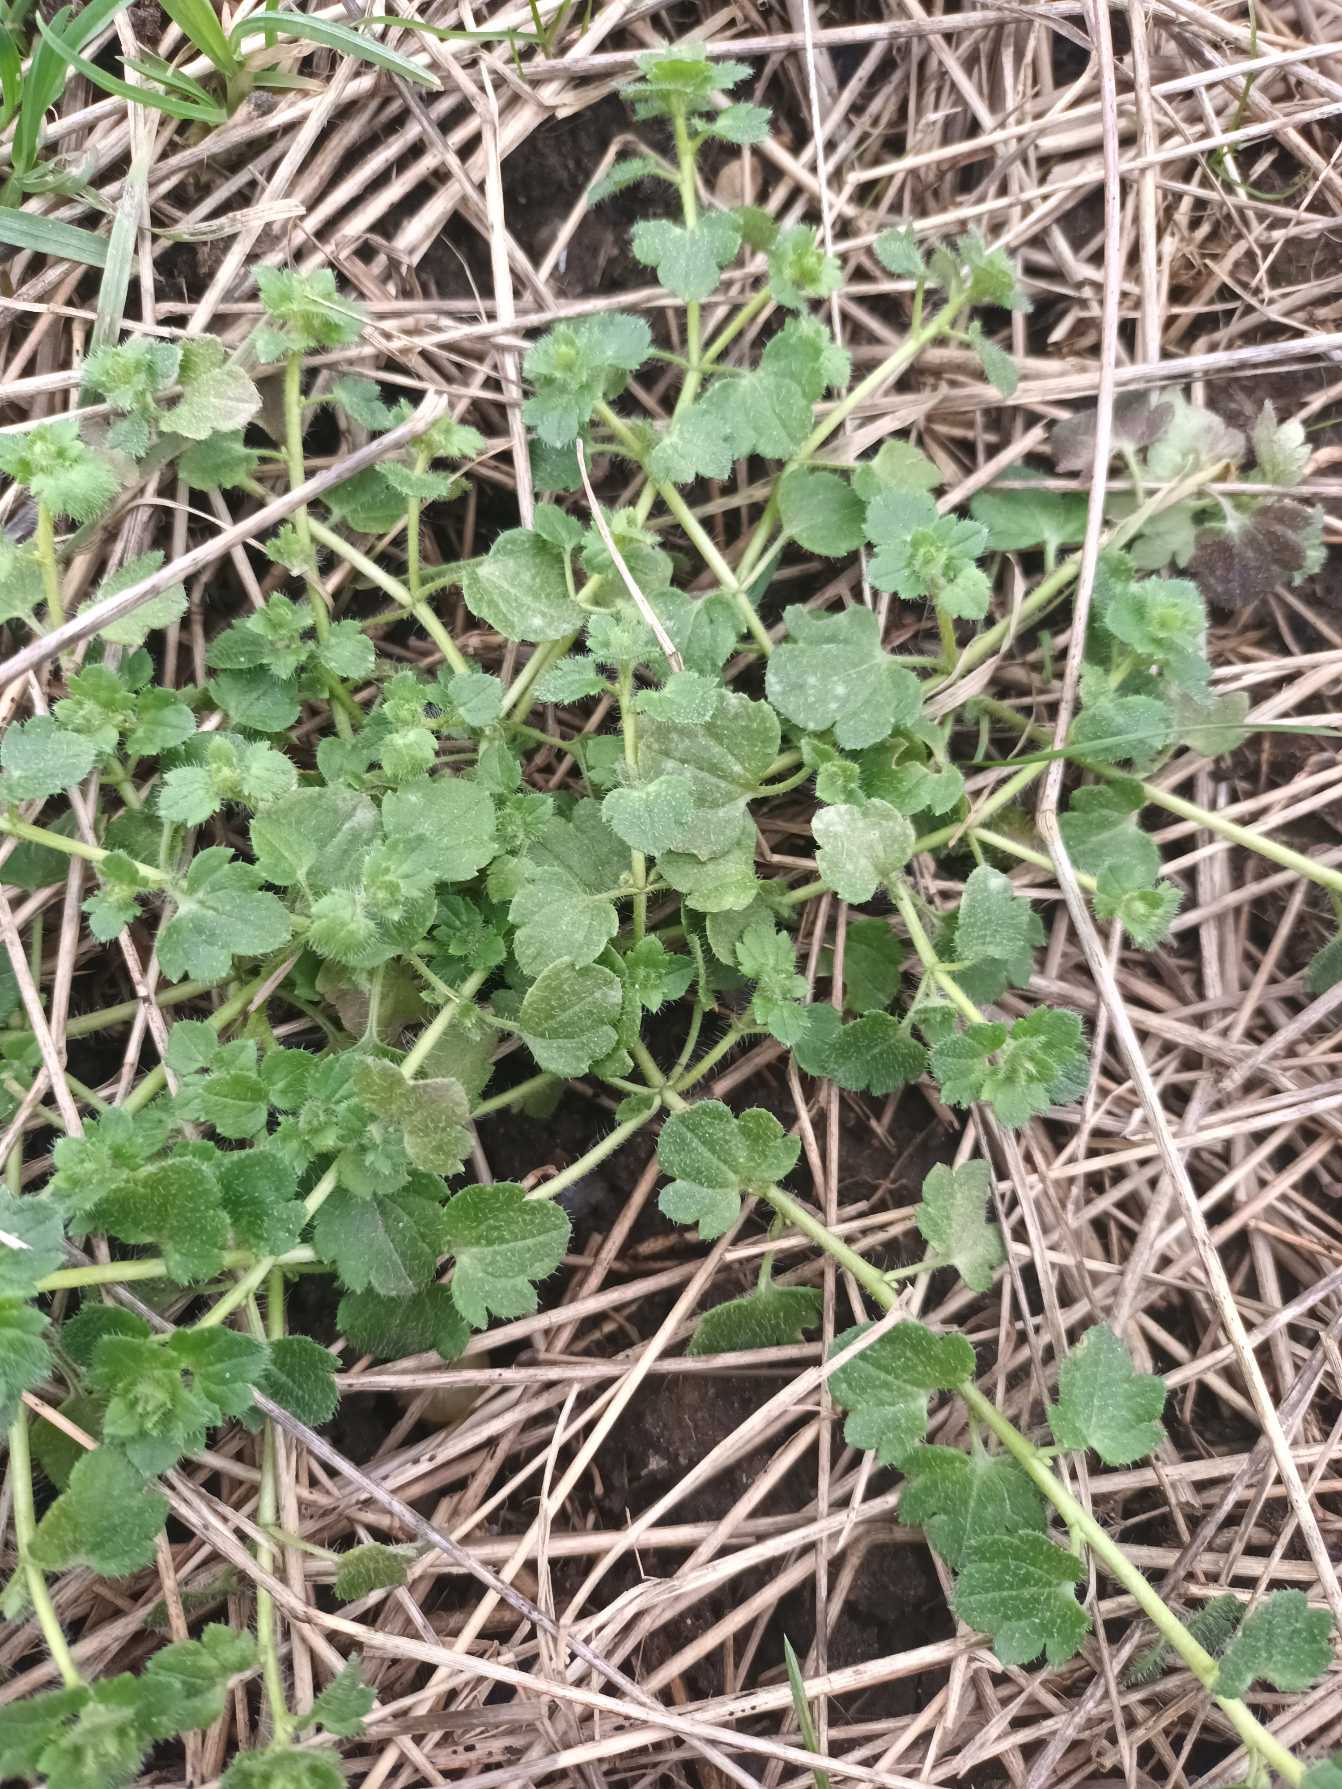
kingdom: Plantae
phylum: Tracheophyta
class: Magnoliopsida
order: Lamiales
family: Plantaginaceae
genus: Veronica
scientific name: Veronica hederifolia
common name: Vedbend-ærenpris (underart)
